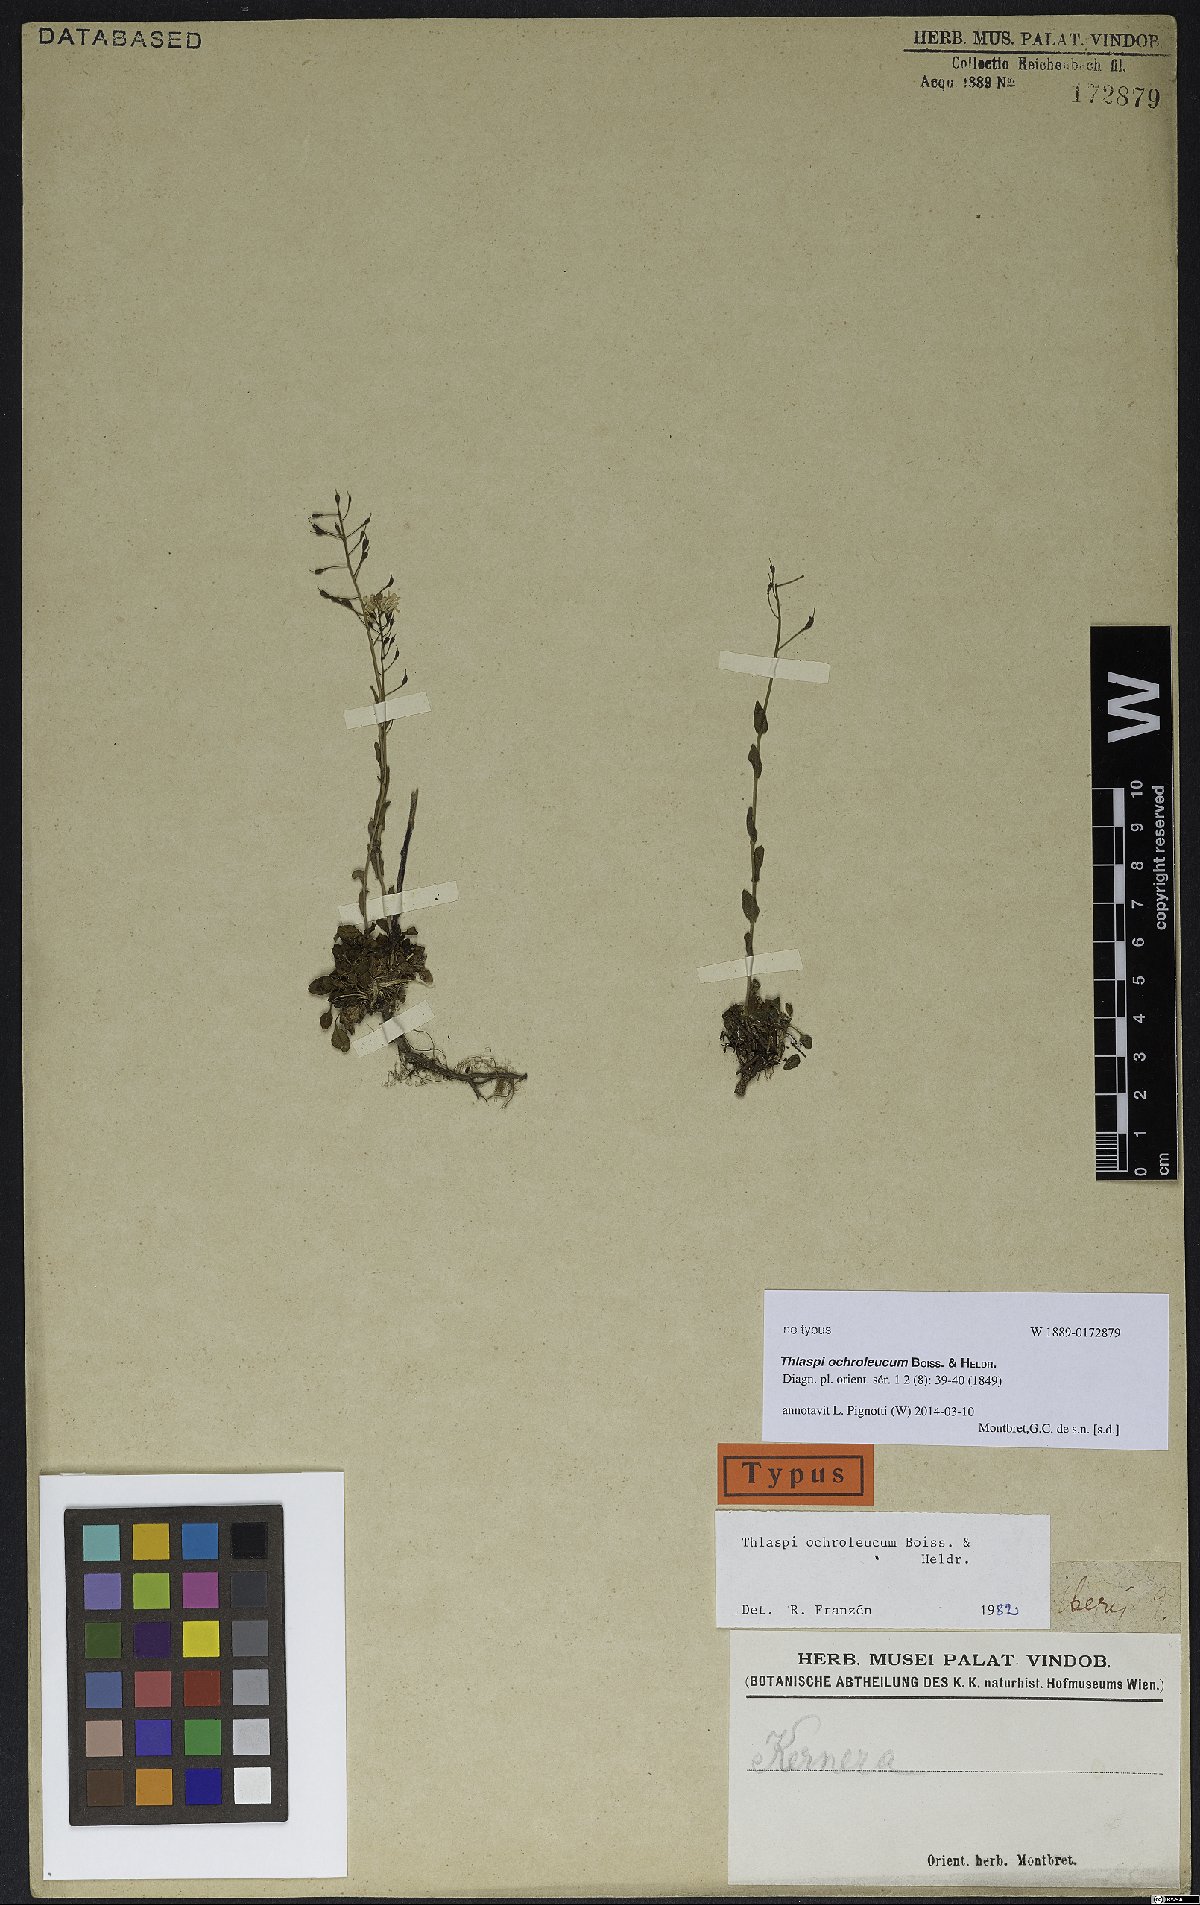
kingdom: Plantae
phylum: Tracheophyta
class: Magnoliopsida
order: Brassicales
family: Brassicaceae
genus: Noccaea
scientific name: Noccaea ochroleuca
